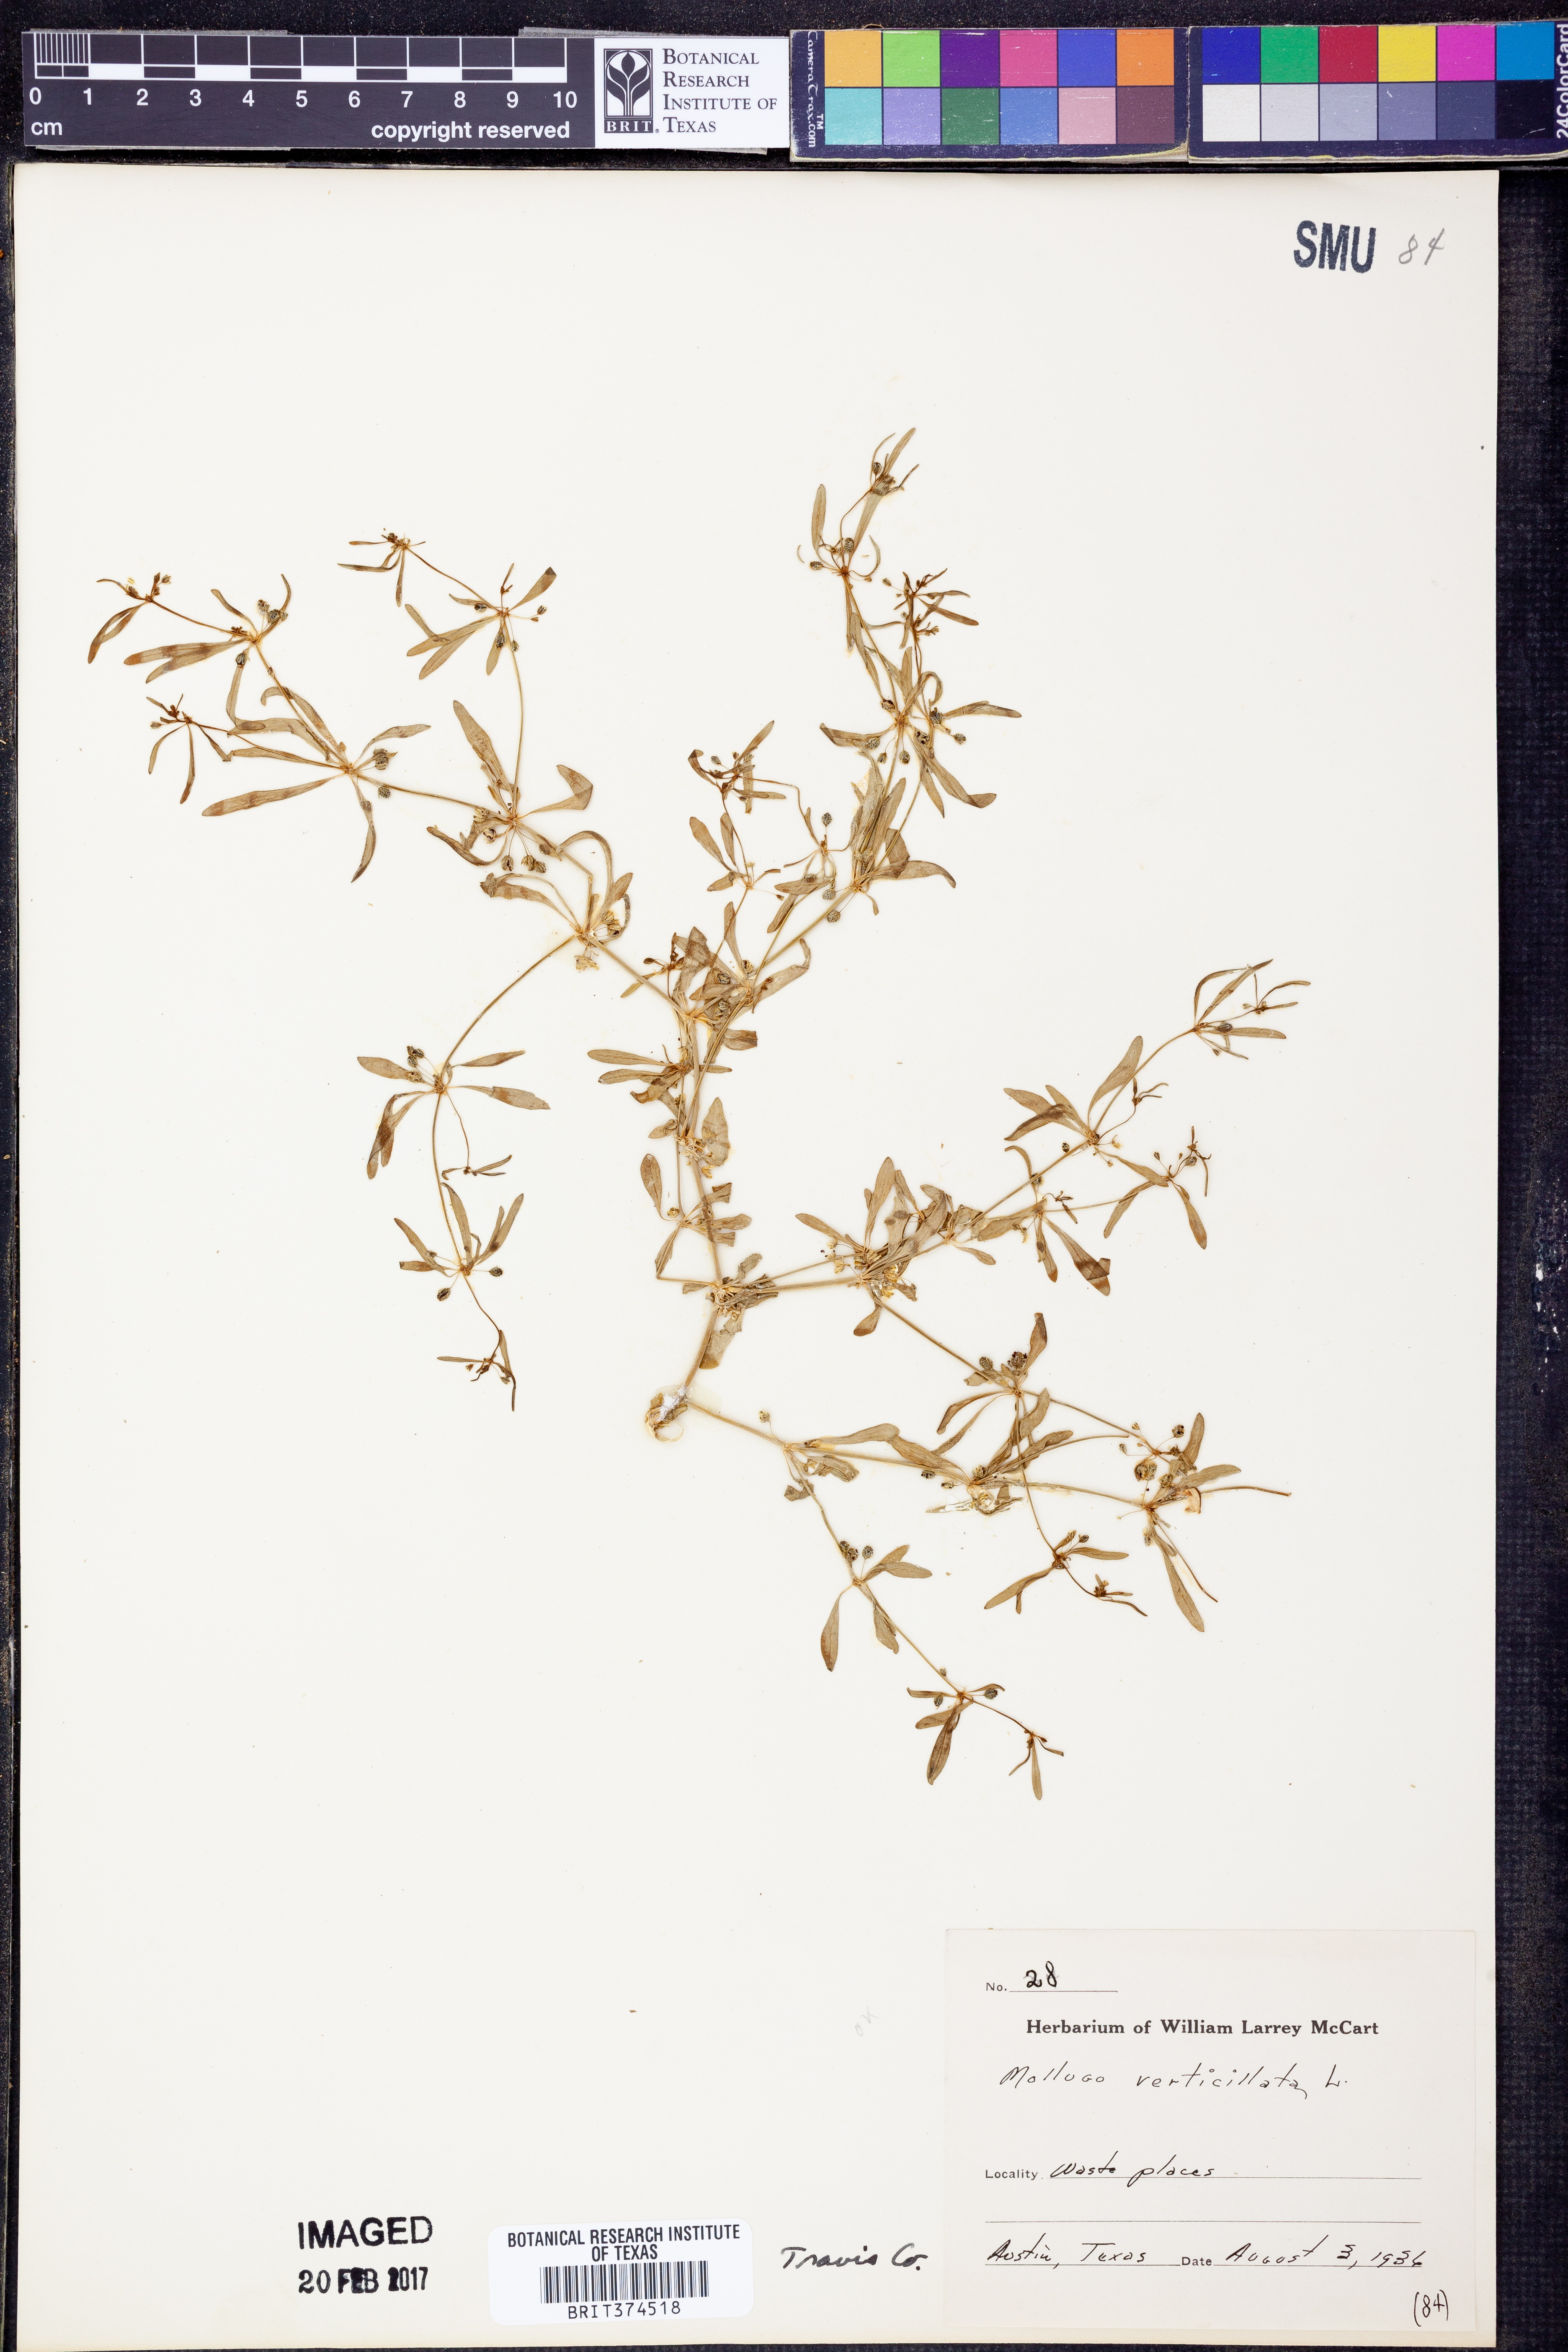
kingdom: Plantae
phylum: Tracheophyta
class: Magnoliopsida
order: Caryophyllales
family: Molluginaceae
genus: Mollugo
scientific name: Mollugo verticillata
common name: Green carpetweed
